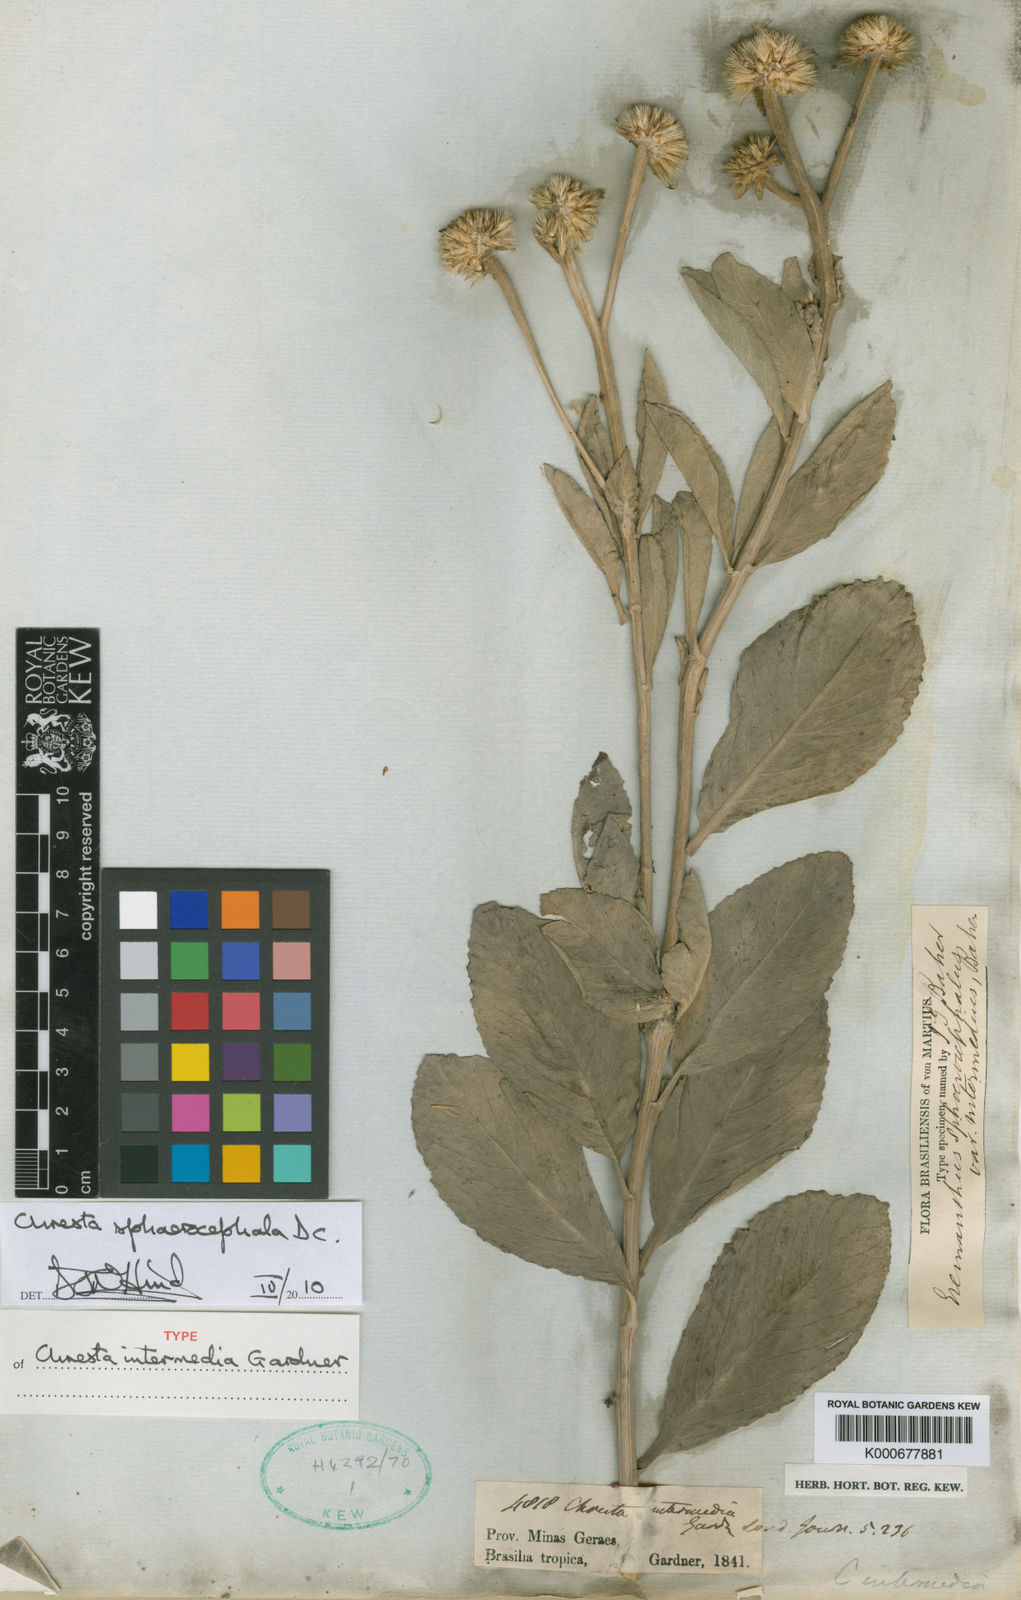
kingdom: Plantae
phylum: Tracheophyta
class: Magnoliopsida
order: Asterales
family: Asteraceae
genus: Chresta
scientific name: Chresta sphaerocephala
